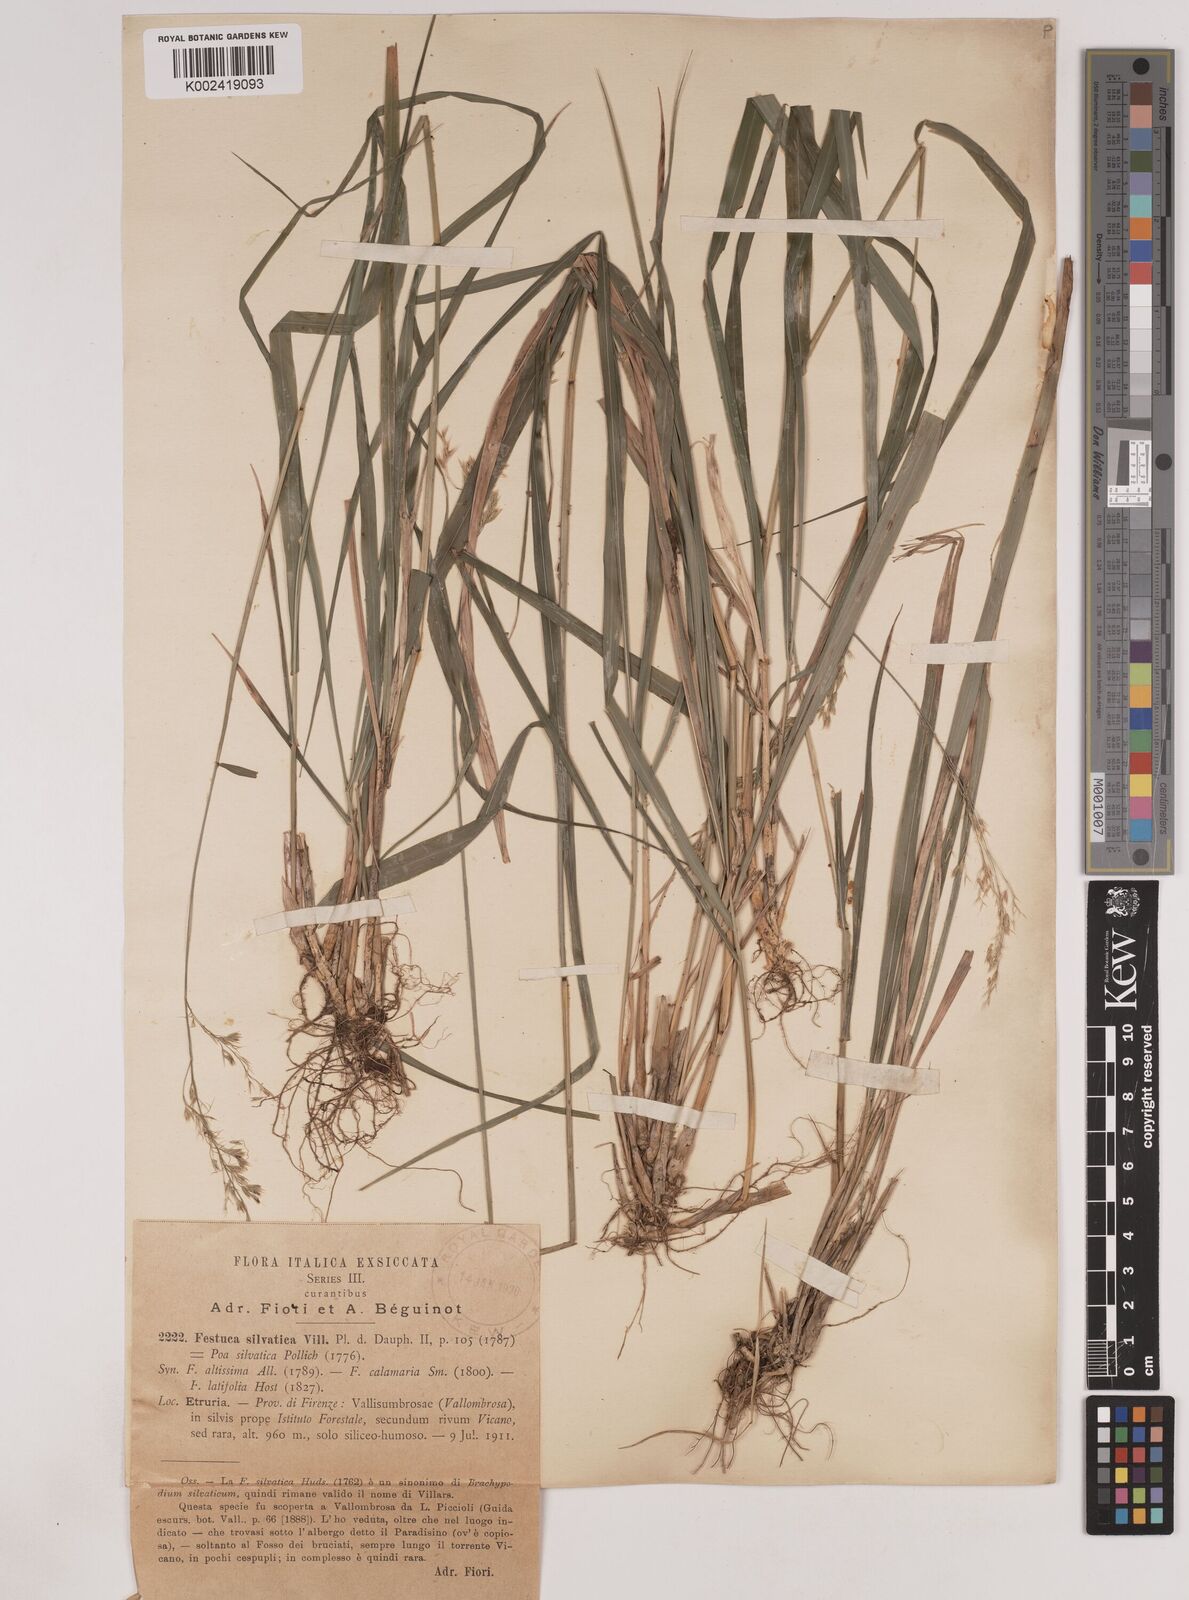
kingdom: Plantae
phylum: Tracheophyta
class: Liliopsida
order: Poales
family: Poaceae
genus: Festuca
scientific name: Festuca drymeja
